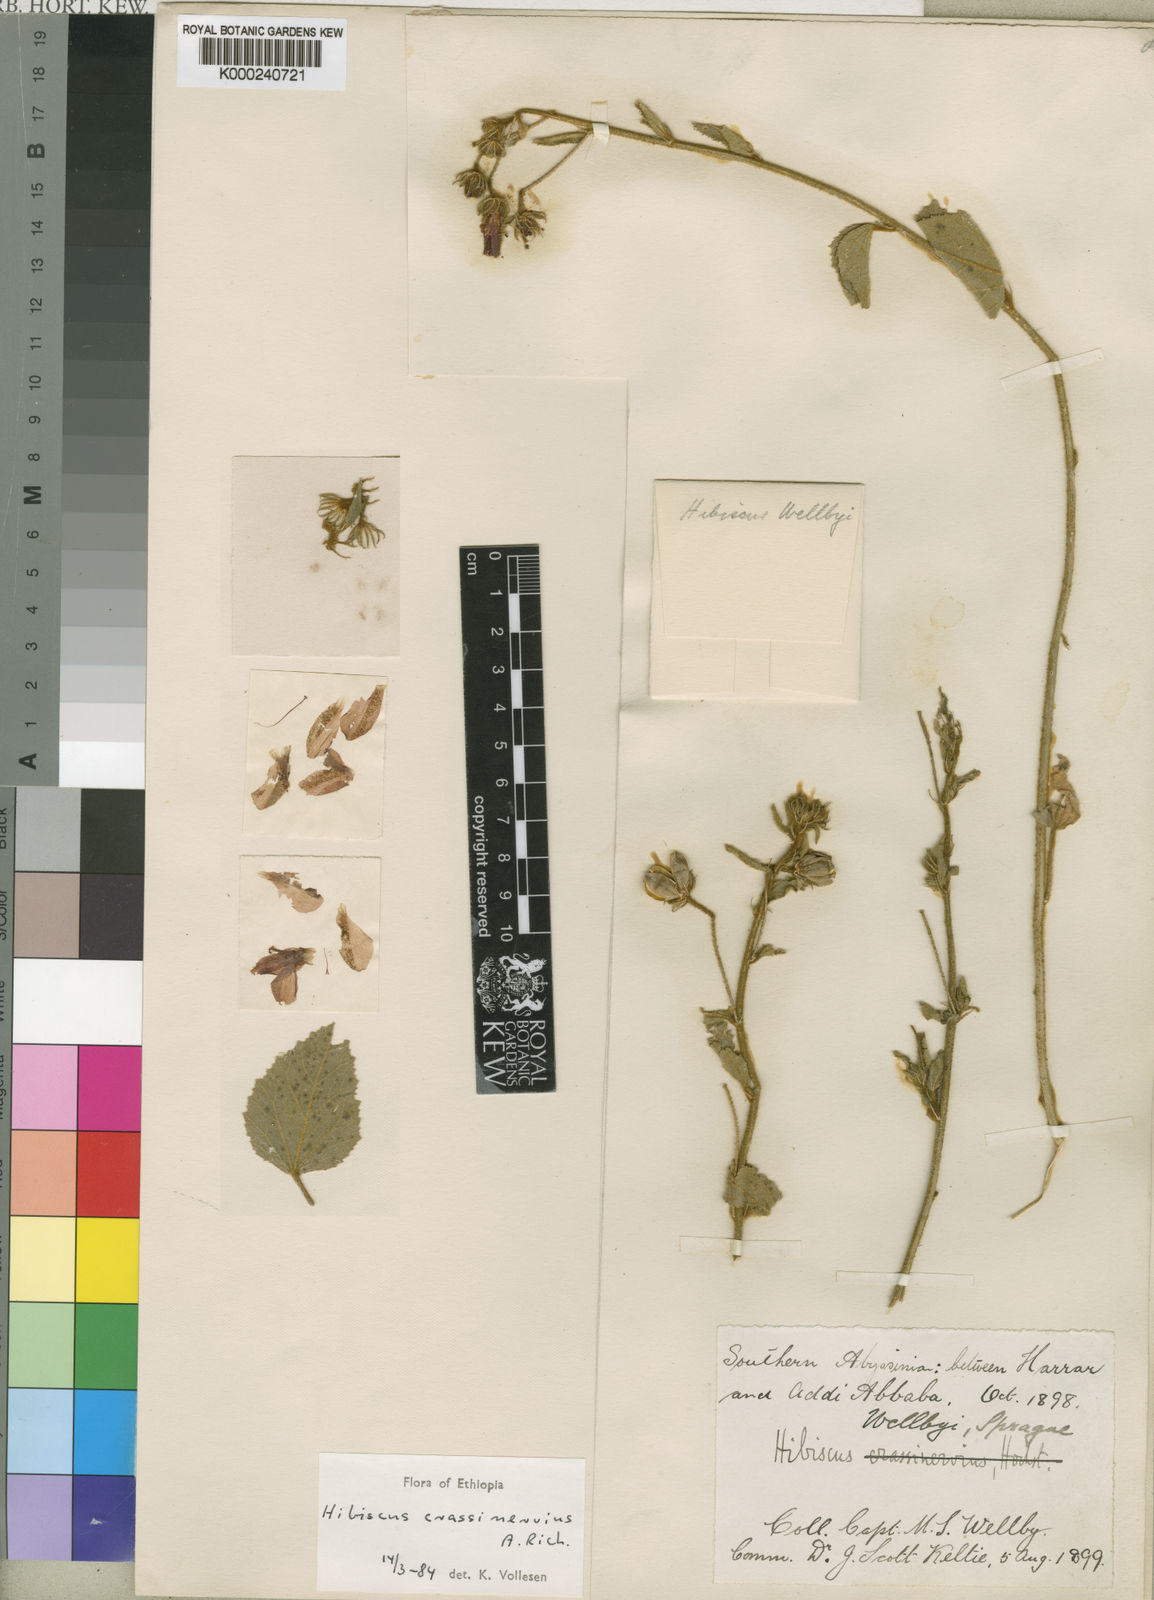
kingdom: Plantae
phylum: Tracheophyta
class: Magnoliopsida
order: Malvales
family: Malvaceae
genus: Hibiscus
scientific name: Hibiscus crassinervius
